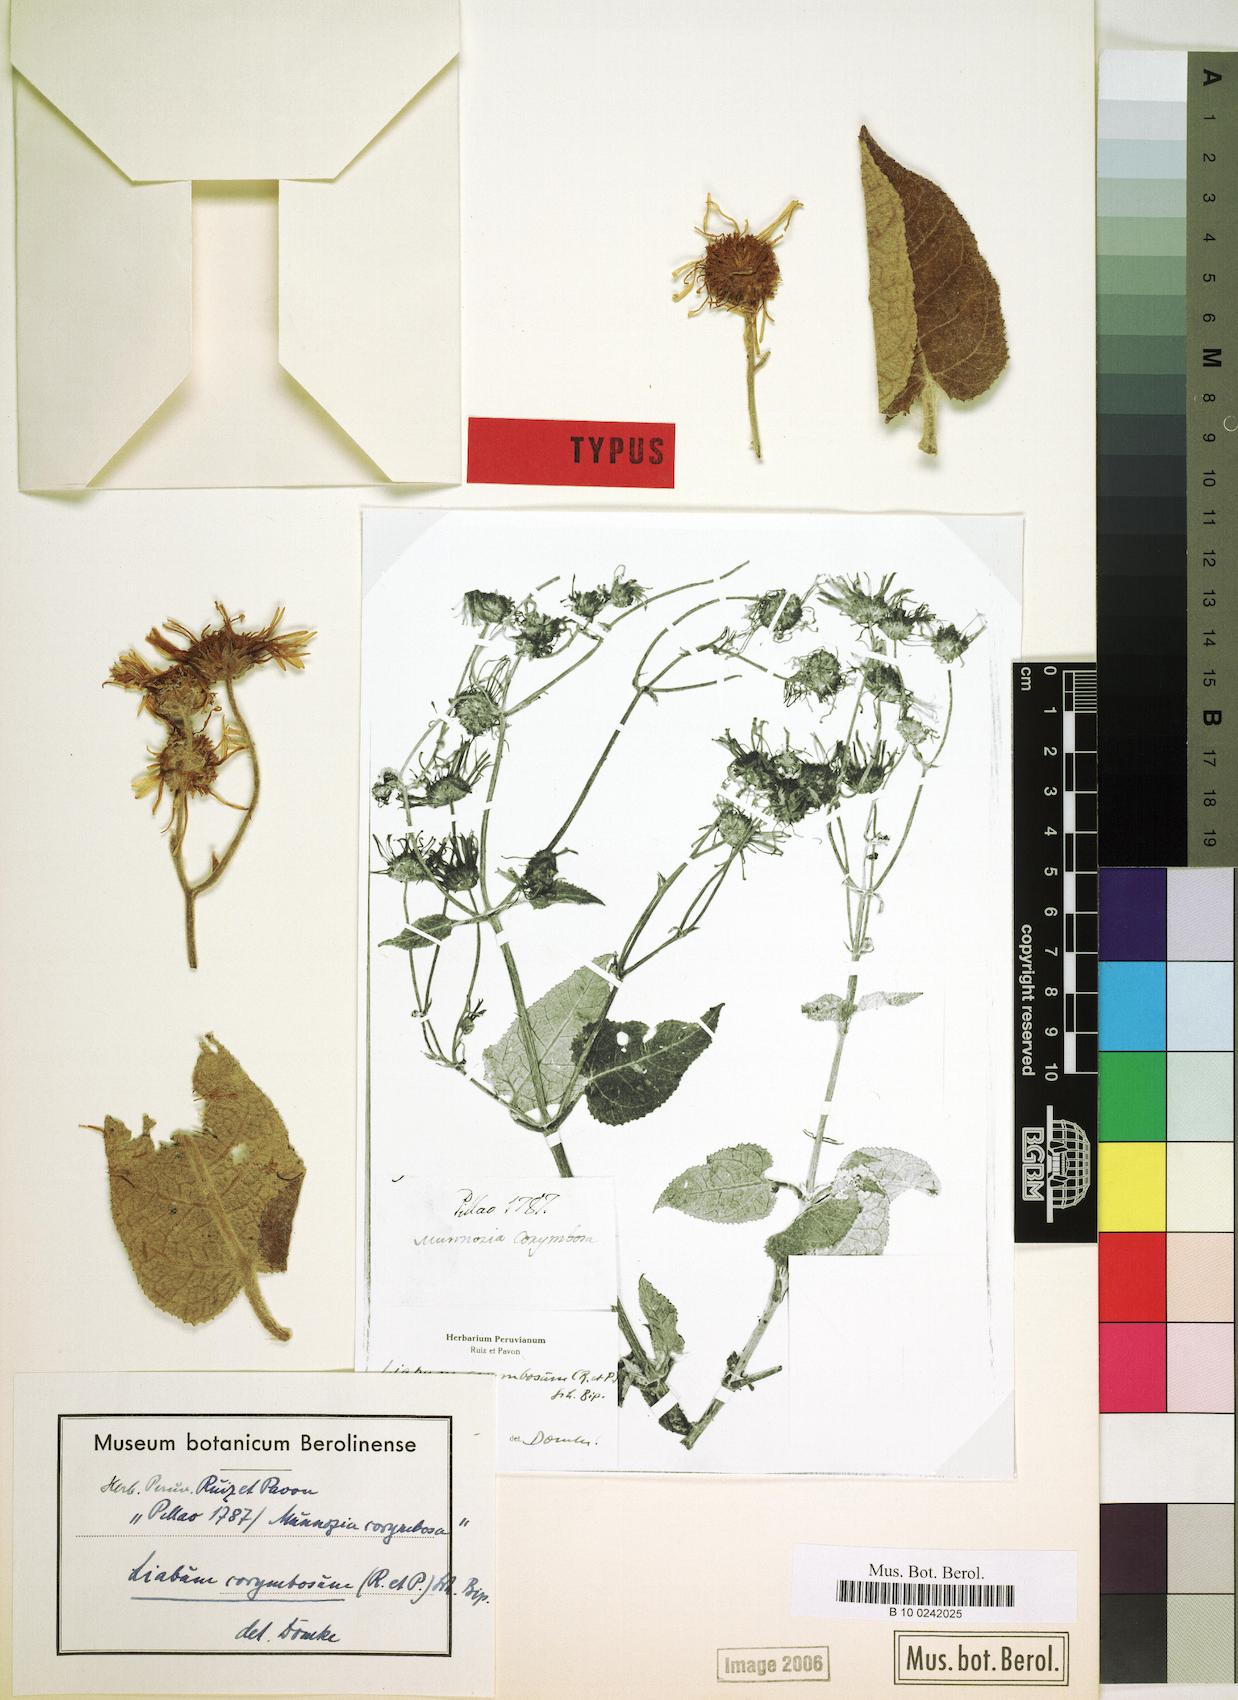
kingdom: Plantae
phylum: Tracheophyta
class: Magnoliopsida
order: Asterales
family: Asteraceae
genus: Munnozia
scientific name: Munnozia maronii
